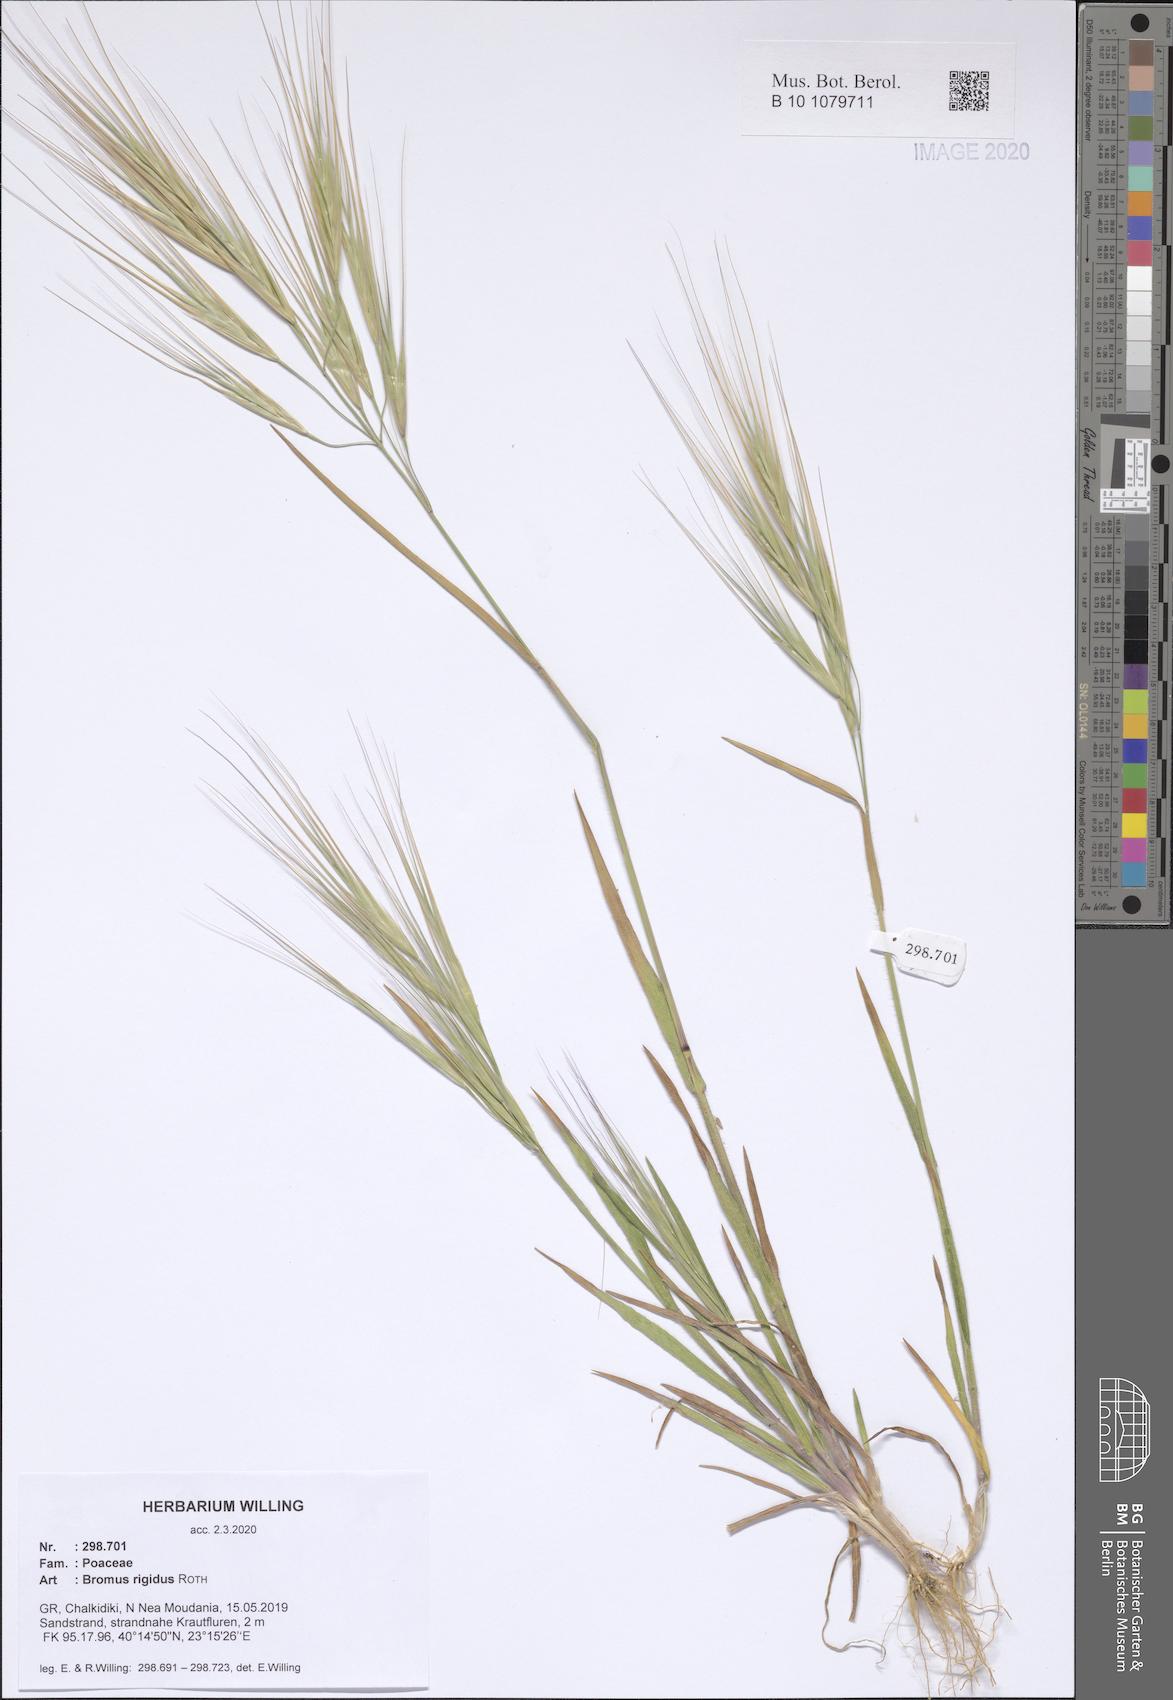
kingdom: Plantae
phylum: Tracheophyta
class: Liliopsida
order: Poales
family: Poaceae
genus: Bromus
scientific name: Bromus rigidus
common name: Ripgut brome
